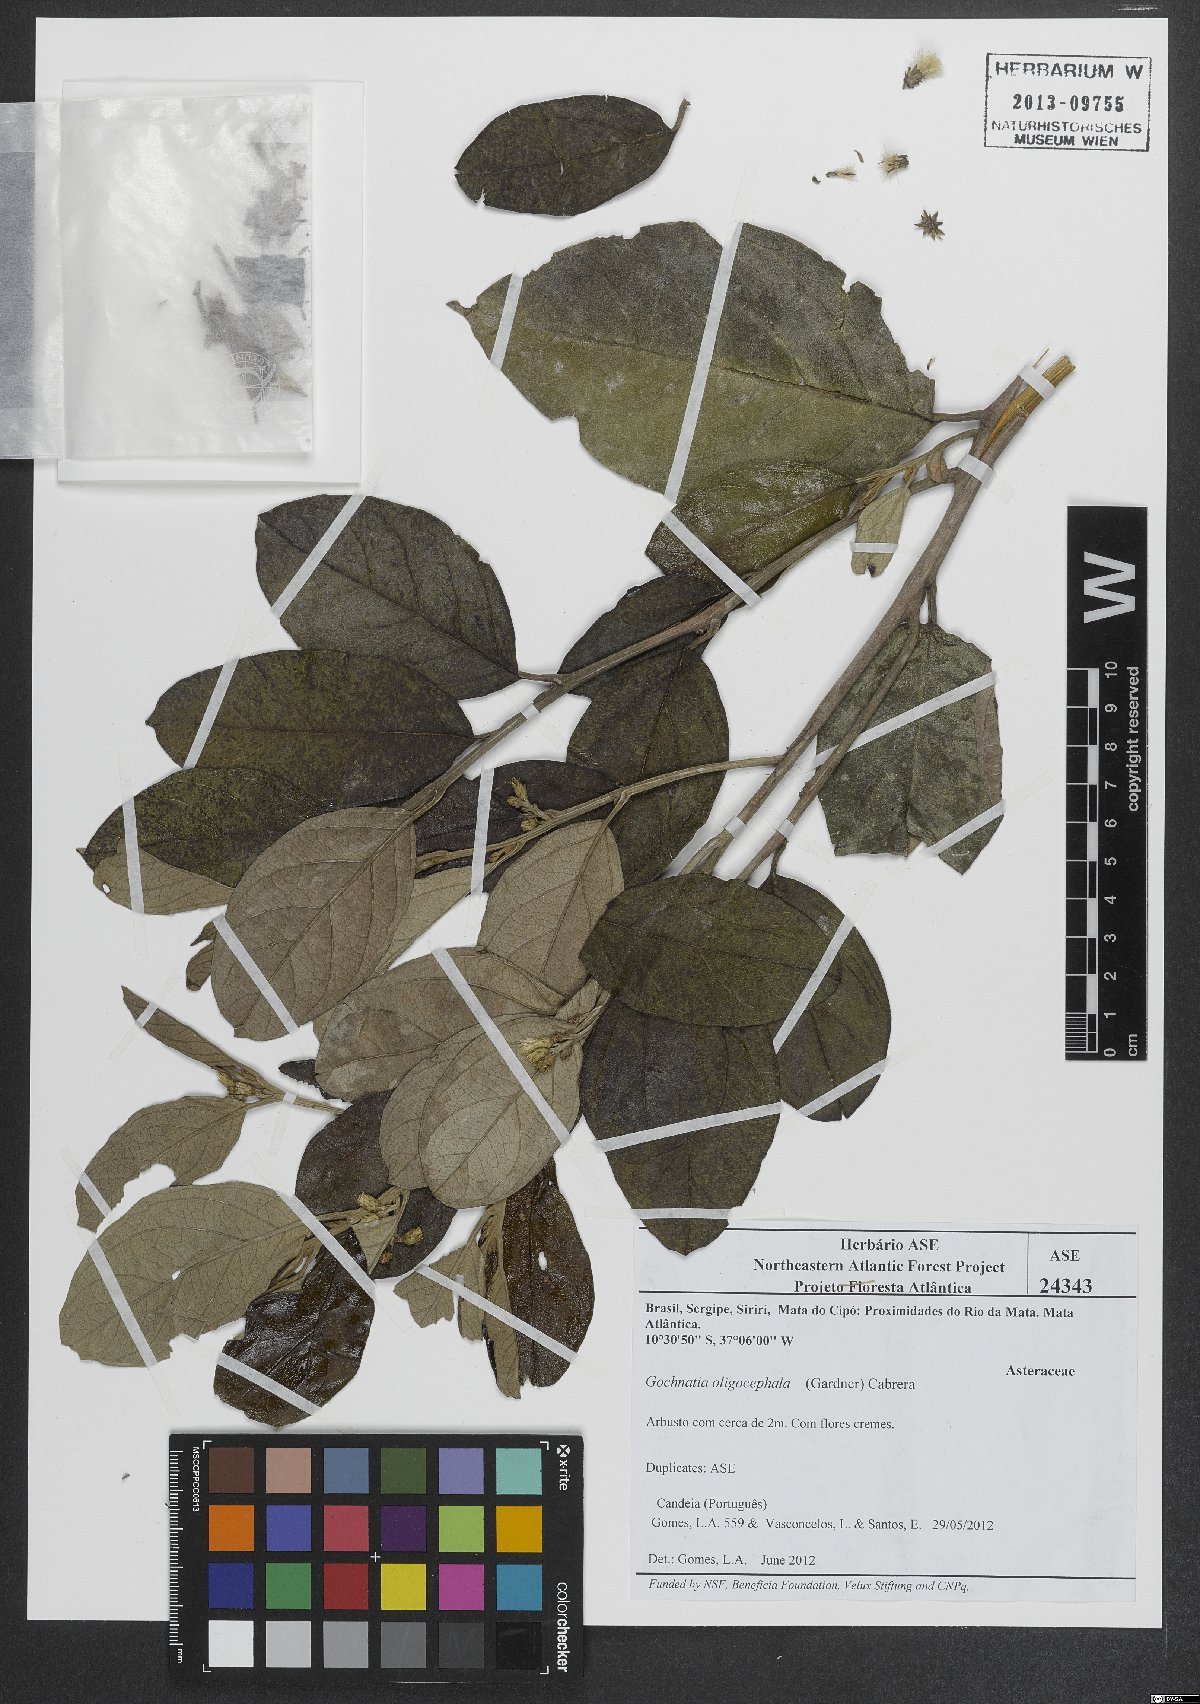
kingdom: Plantae
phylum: Tracheophyta
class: Magnoliopsida
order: Asterales
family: Asteraceae
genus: Moquiniastrum
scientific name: Moquiniastrum oligocephalum
